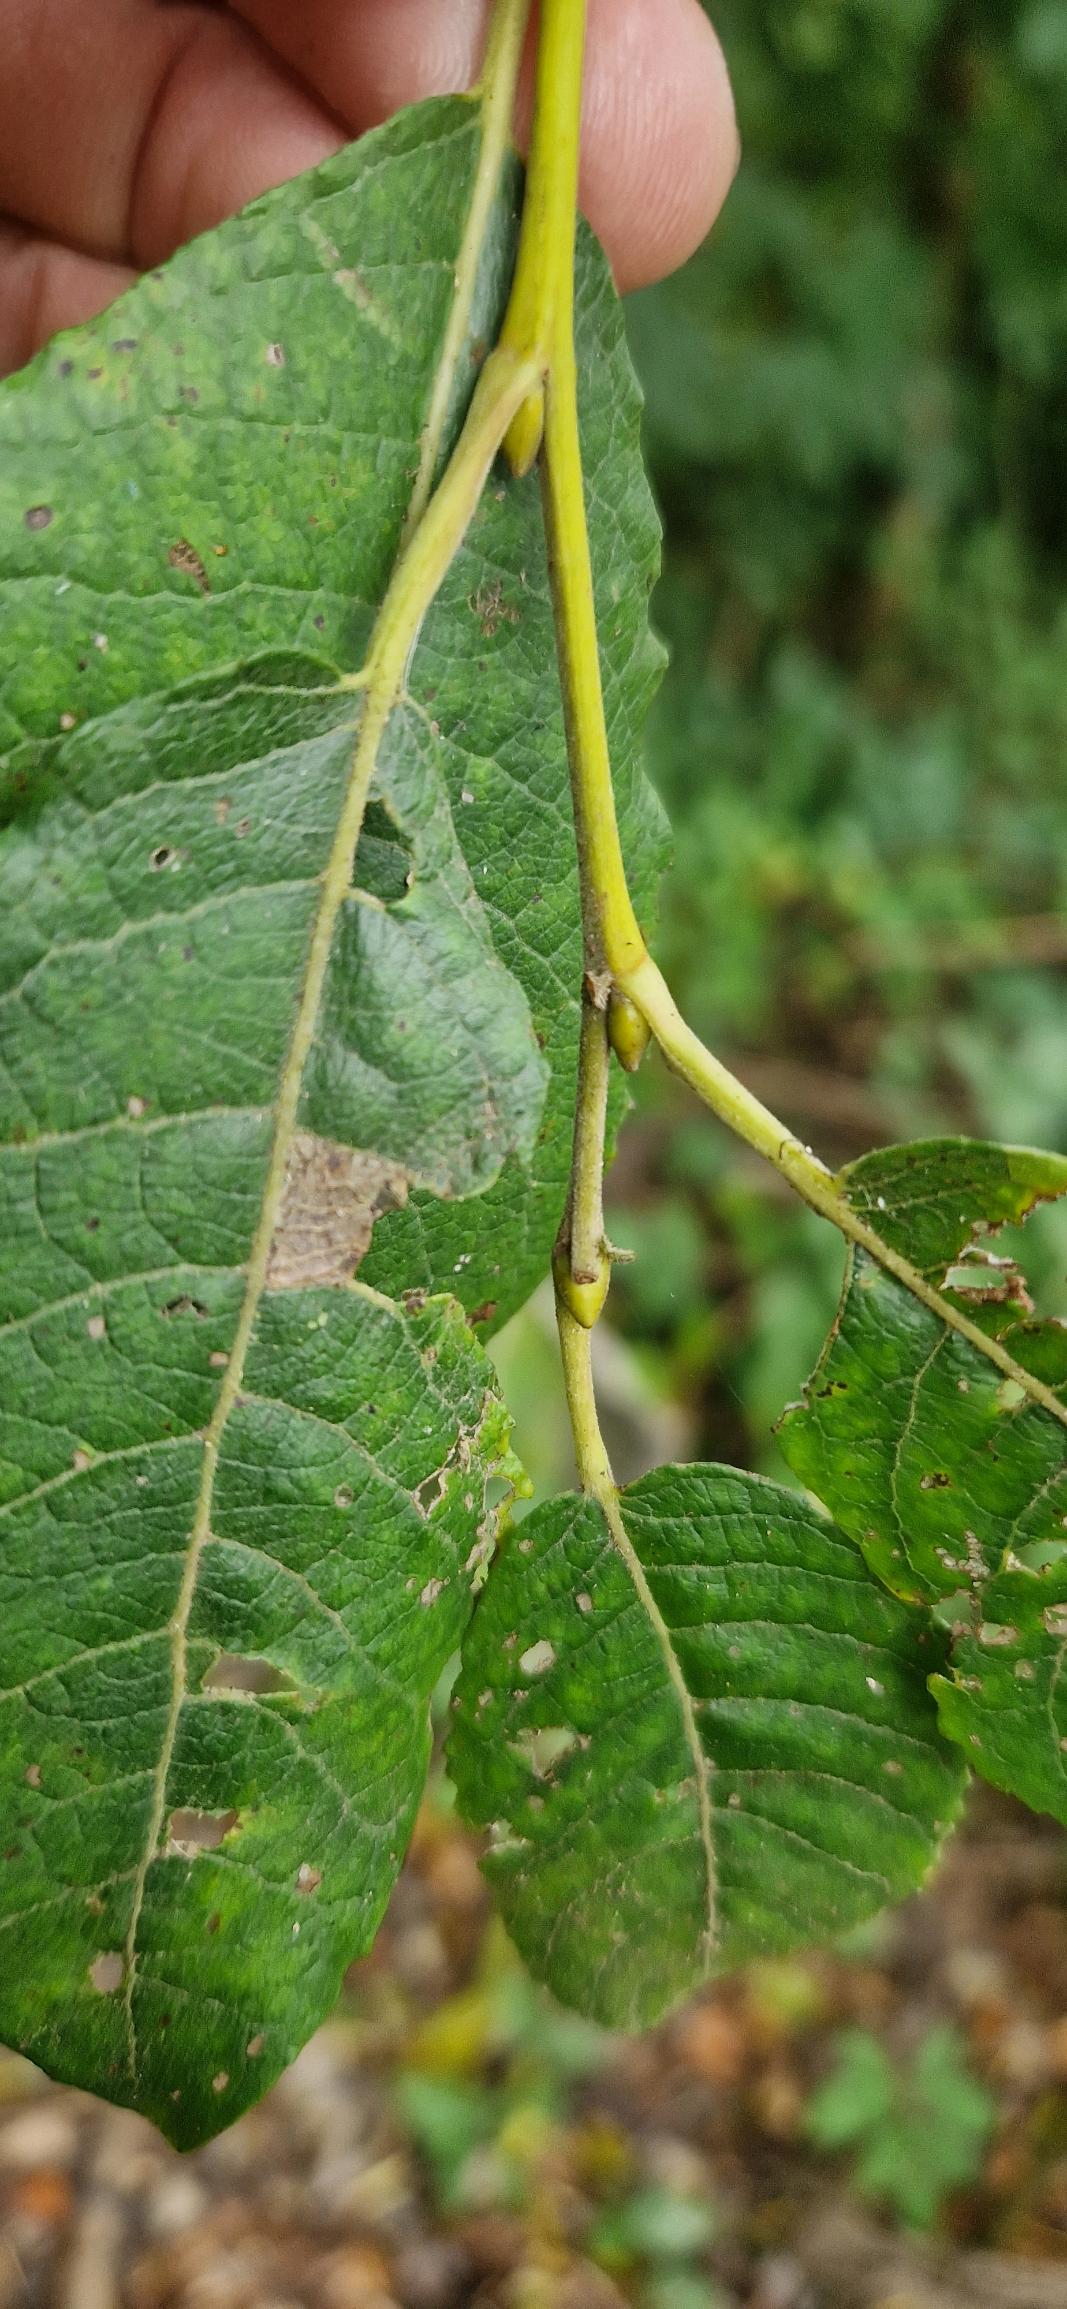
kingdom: Plantae
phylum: Tracheophyta
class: Magnoliopsida
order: Malpighiales
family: Salicaceae
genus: Salix
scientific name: Salix caprea
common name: Selje-pil
